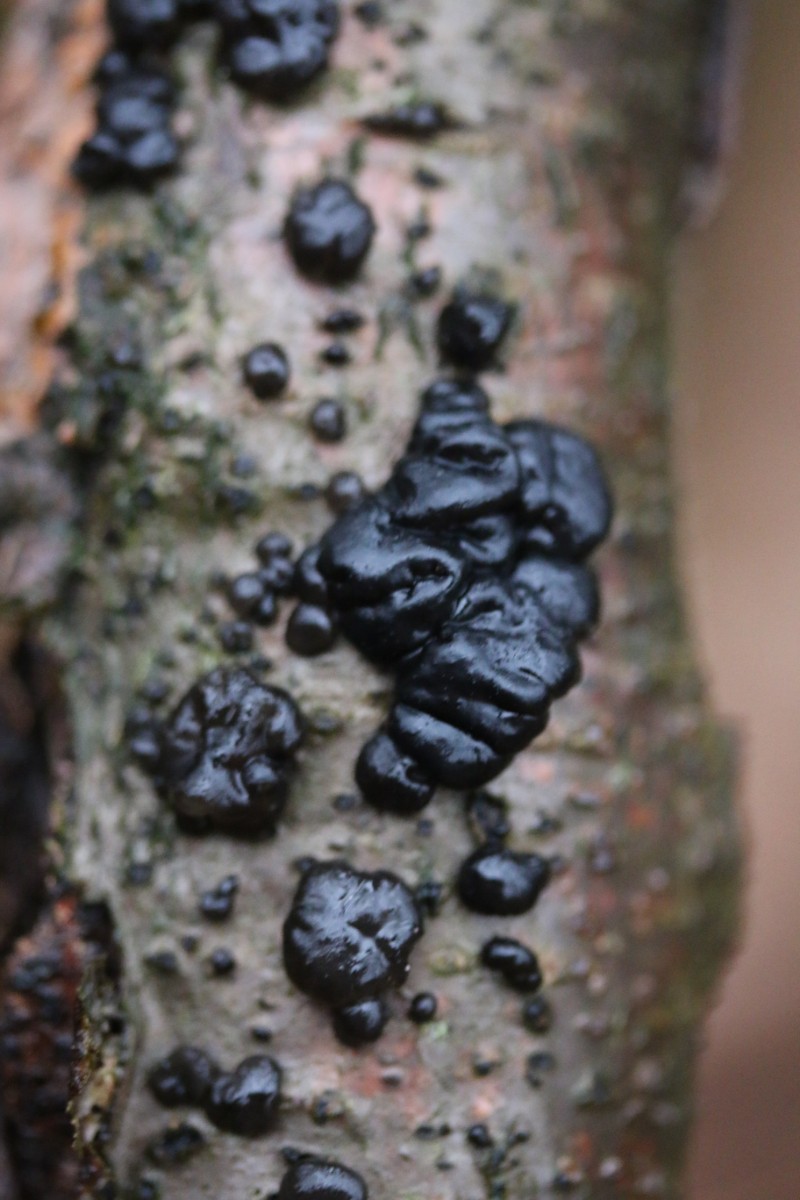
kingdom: Fungi
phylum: Basidiomycota
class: Agaricomycetes
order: Auriculariales
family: Auriculariaceae
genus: Exidia
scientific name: Exidia nigricans
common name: almindelig bævretop
